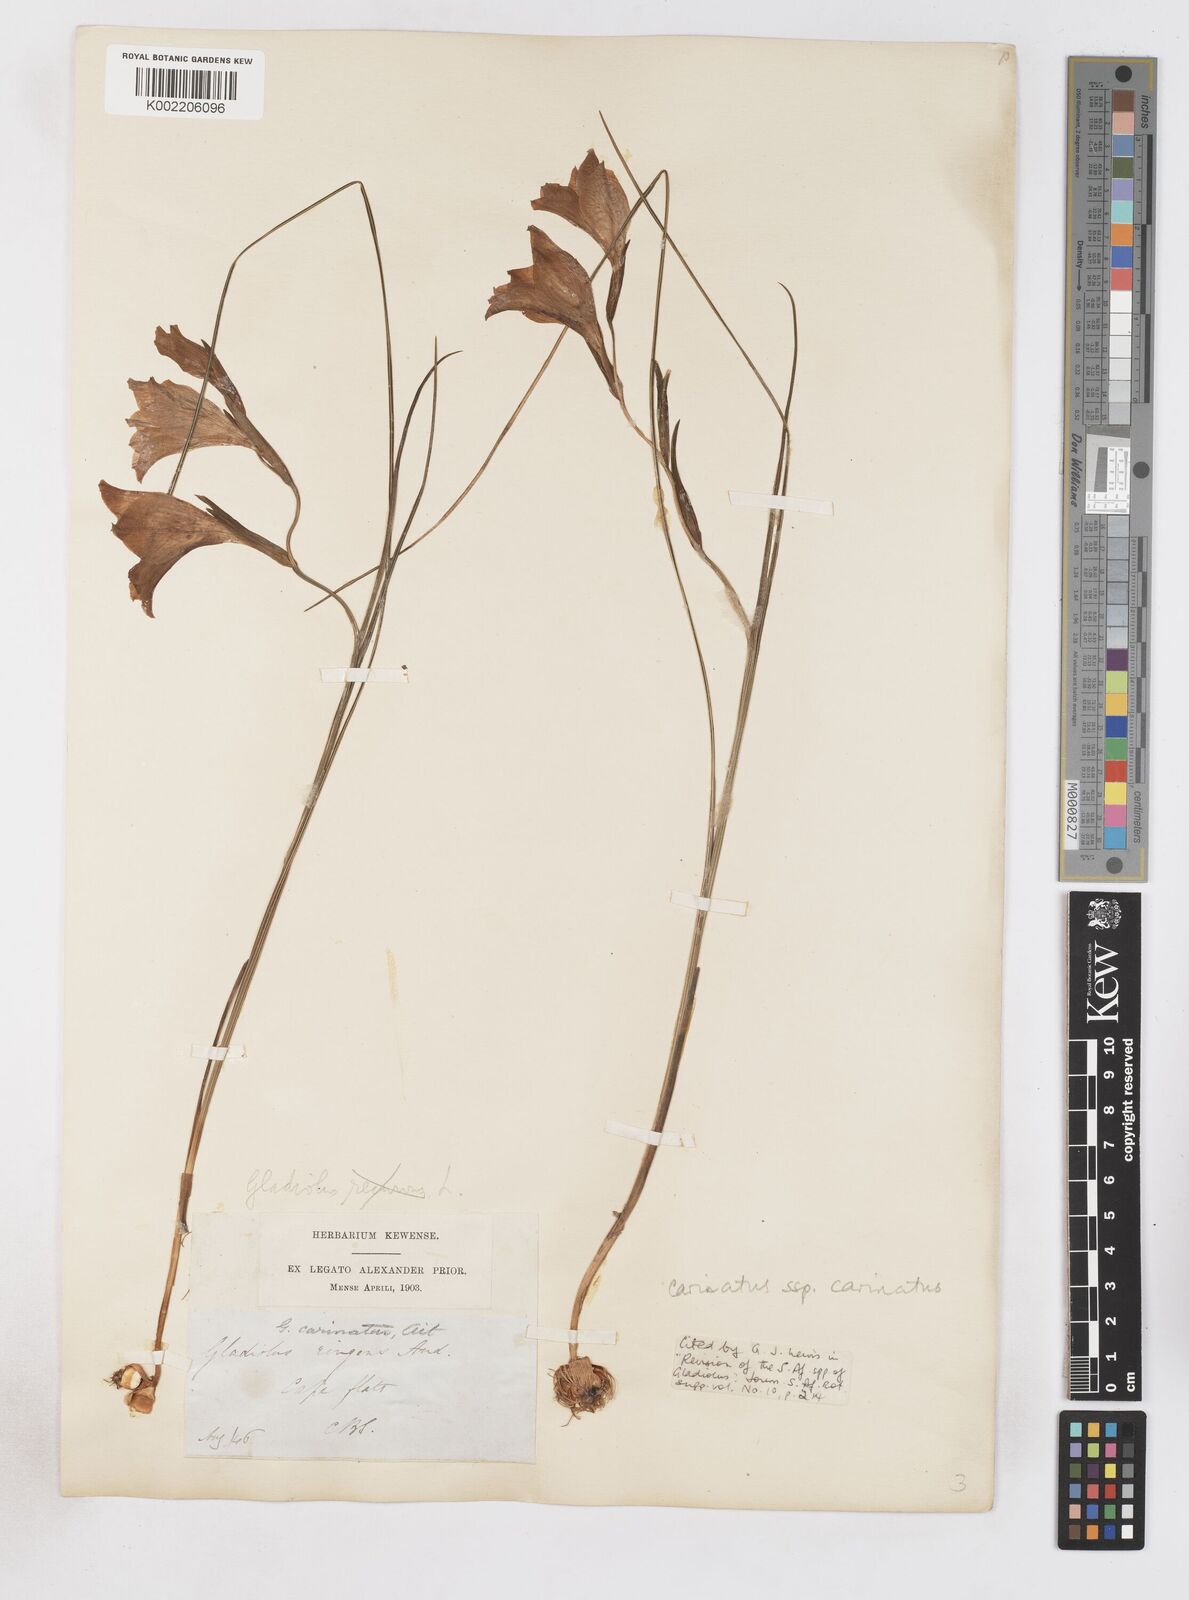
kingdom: Plantae
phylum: Tracheophyta
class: Liliopsida
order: Asparagales
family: Iridaceae
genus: Gladiolus
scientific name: Gladiolus carinatus
